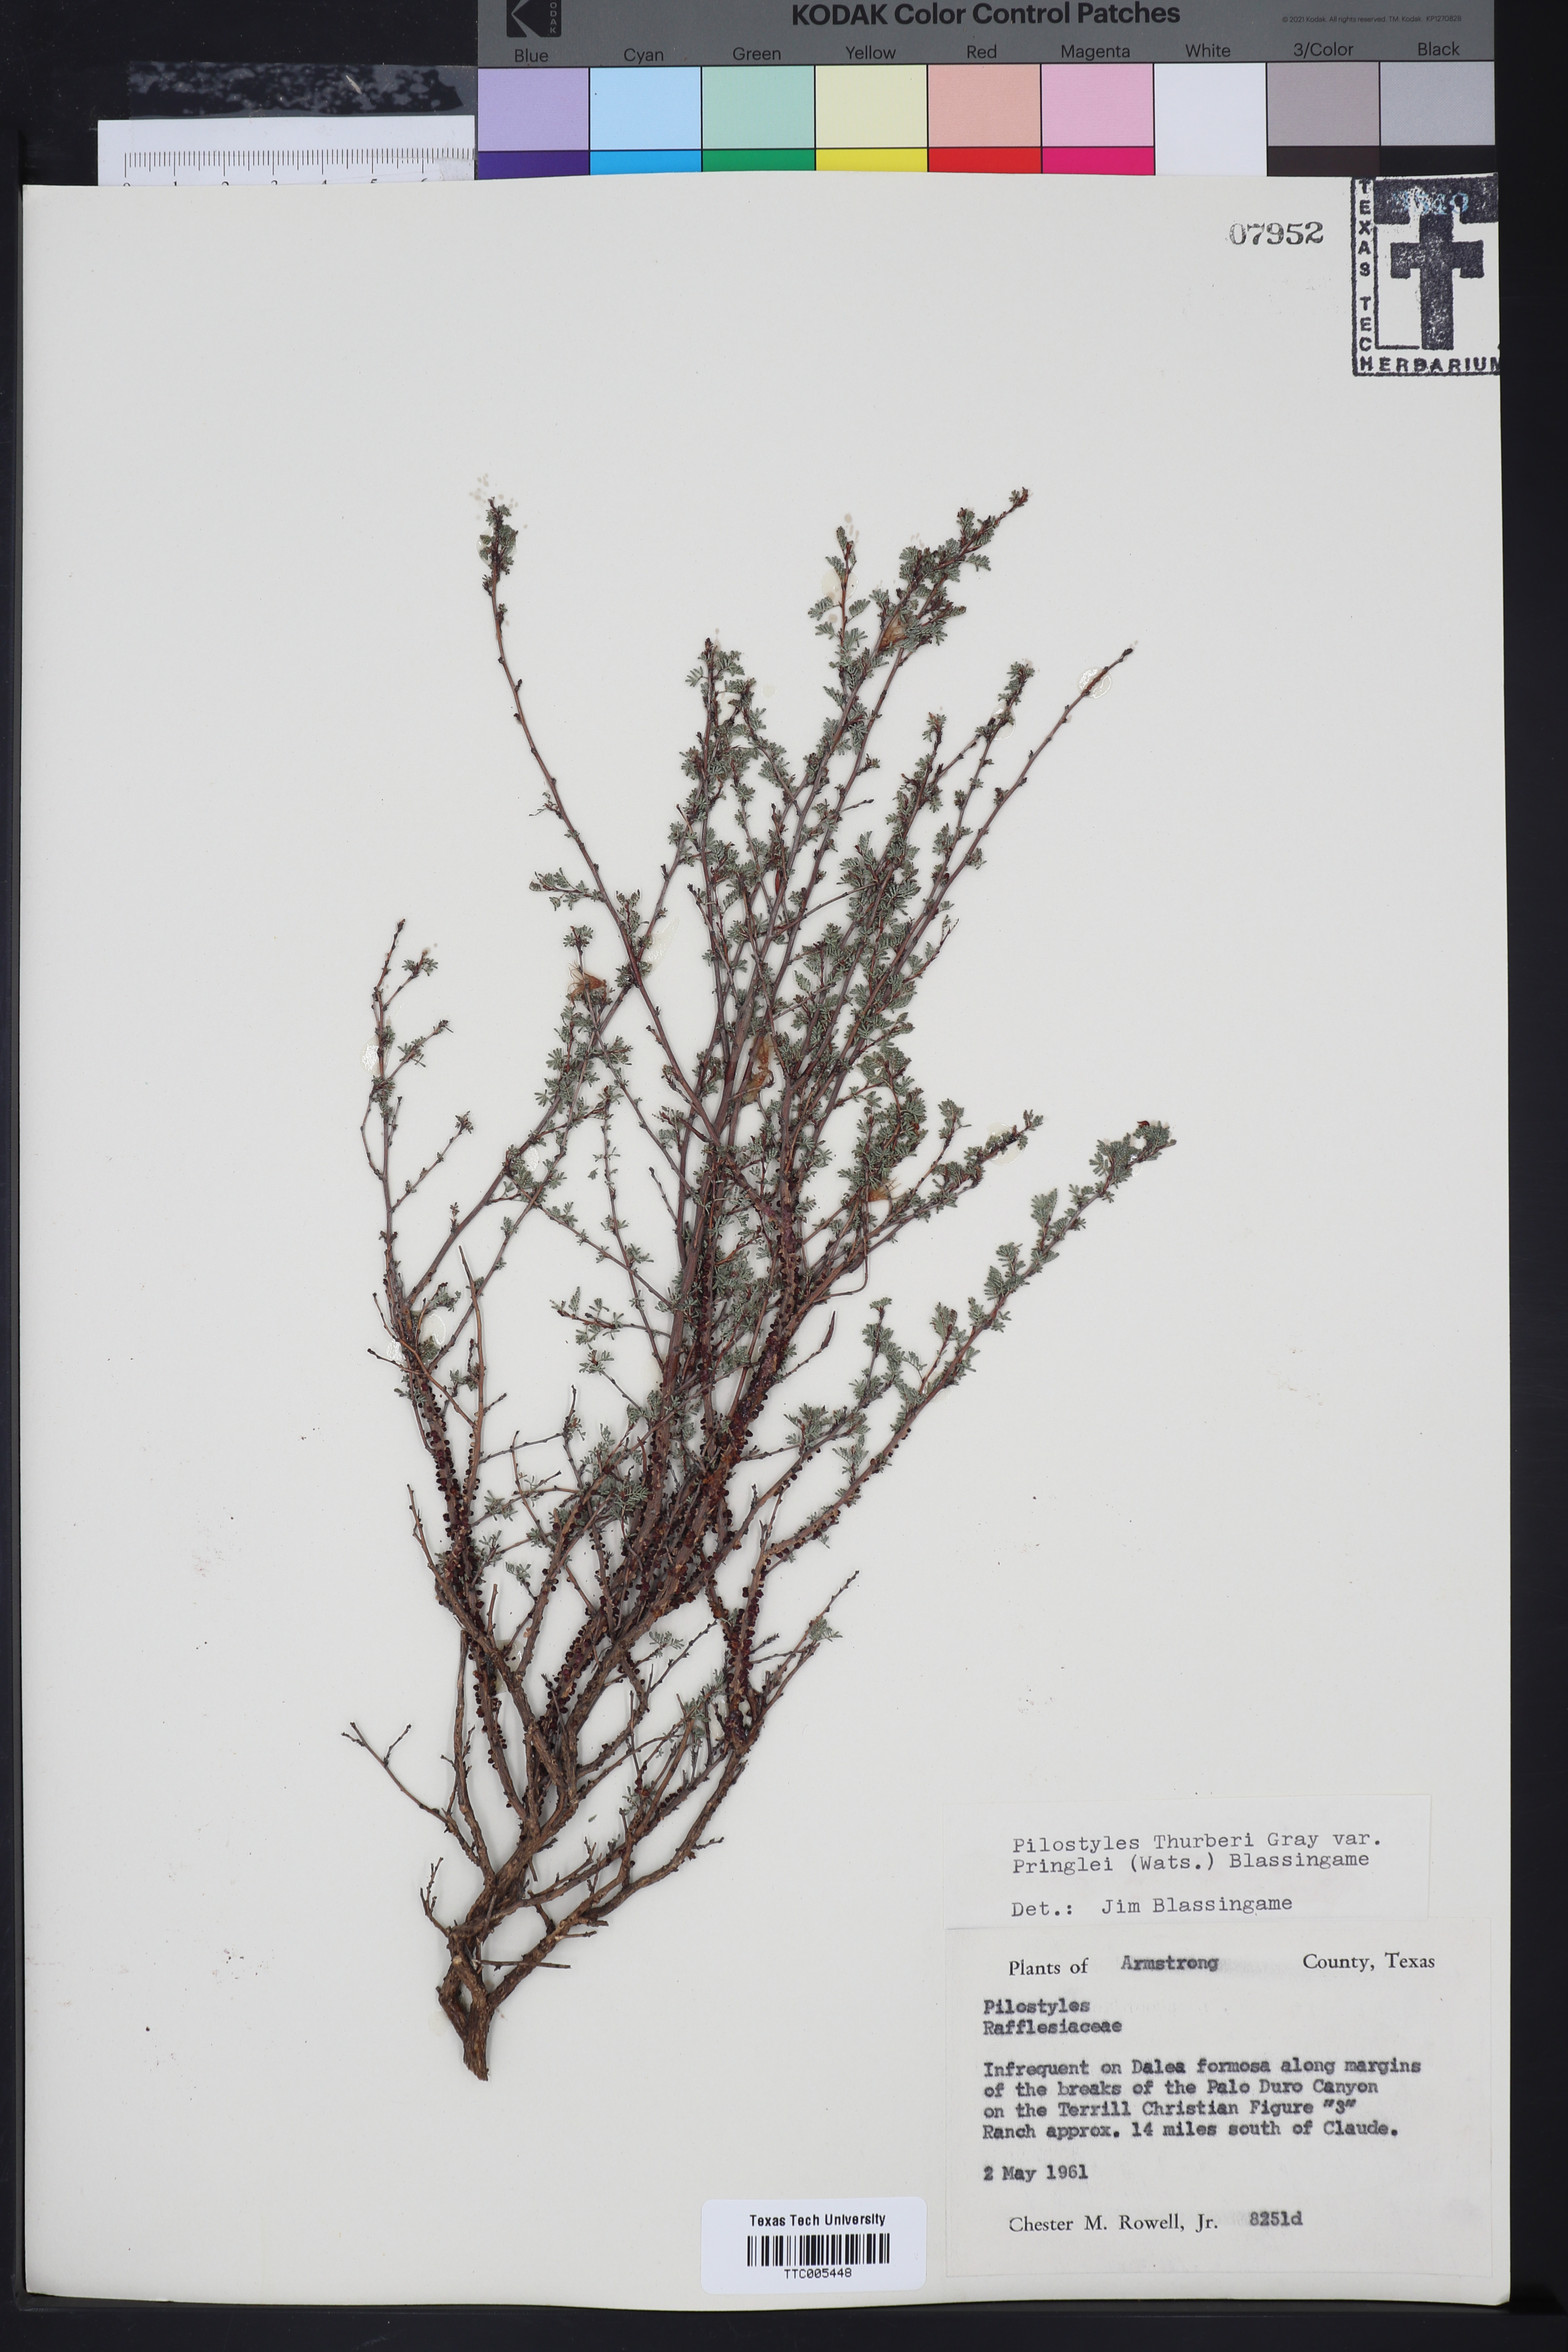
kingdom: Plantae
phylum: Tracheophyta
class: Magnoliopsida
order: Cucurbitales
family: Apodanthaceae
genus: Pilostyles
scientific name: Pilostyles thurberi
